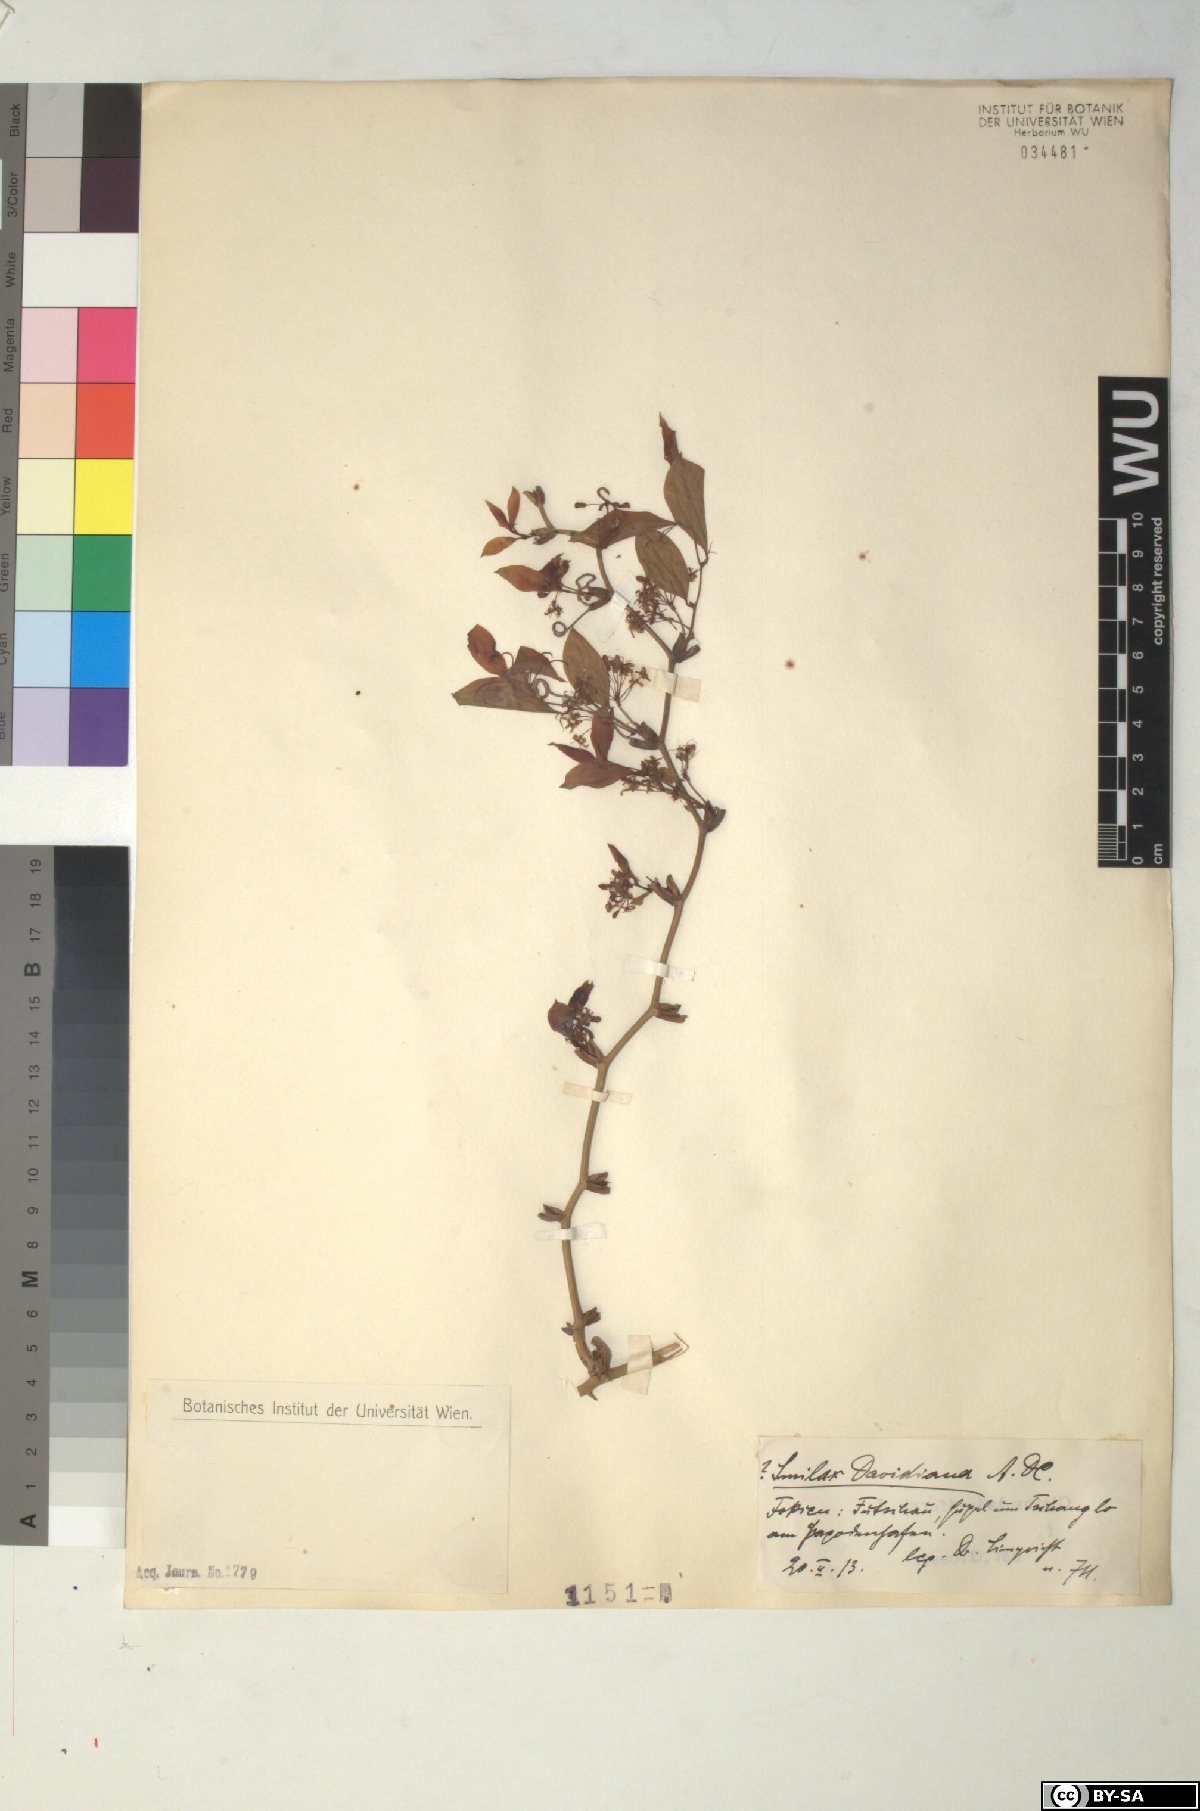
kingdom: Plantae
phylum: Tracheophyta
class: Liliopsida
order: Liliales
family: Smilacaceae
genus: Smilax
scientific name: Smilax davidiana
